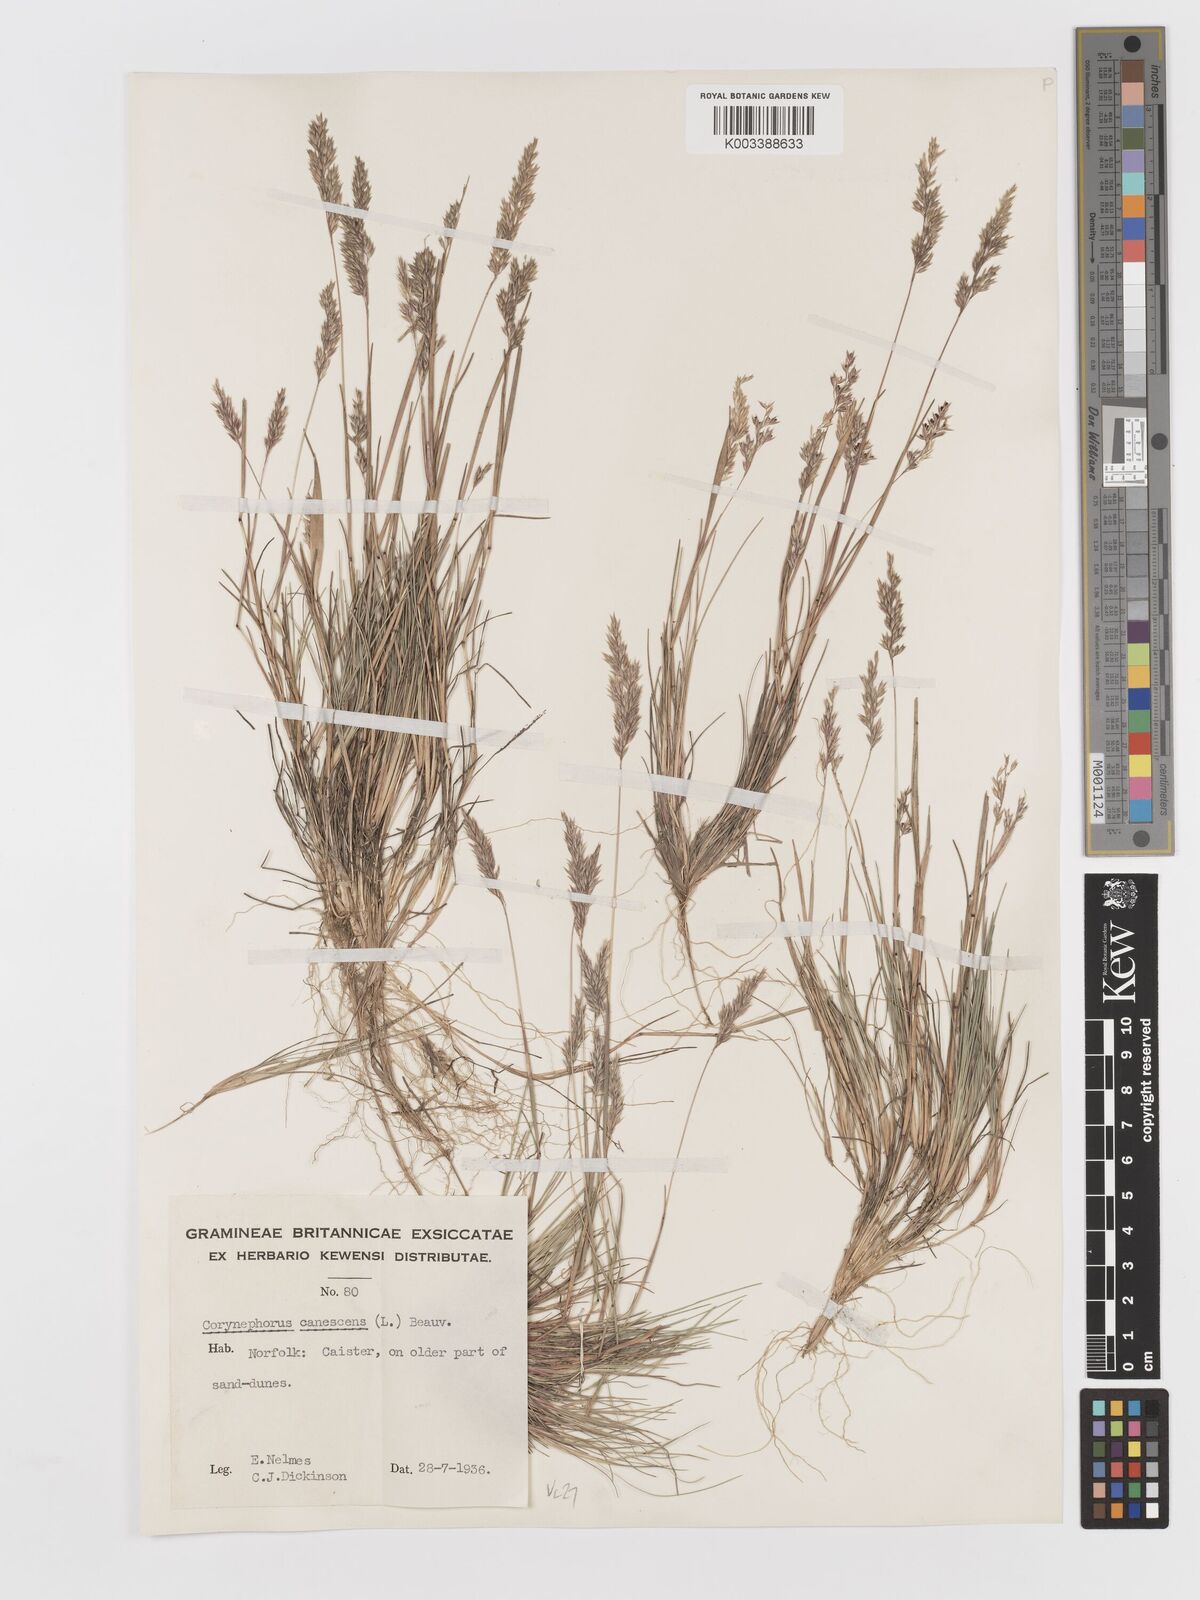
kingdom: Plantae
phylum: Tracheophyta
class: Liliopsida
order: Poales
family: Poaceae
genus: Corynephorus
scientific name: Corynephorus canescens
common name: Grey hair-grass
